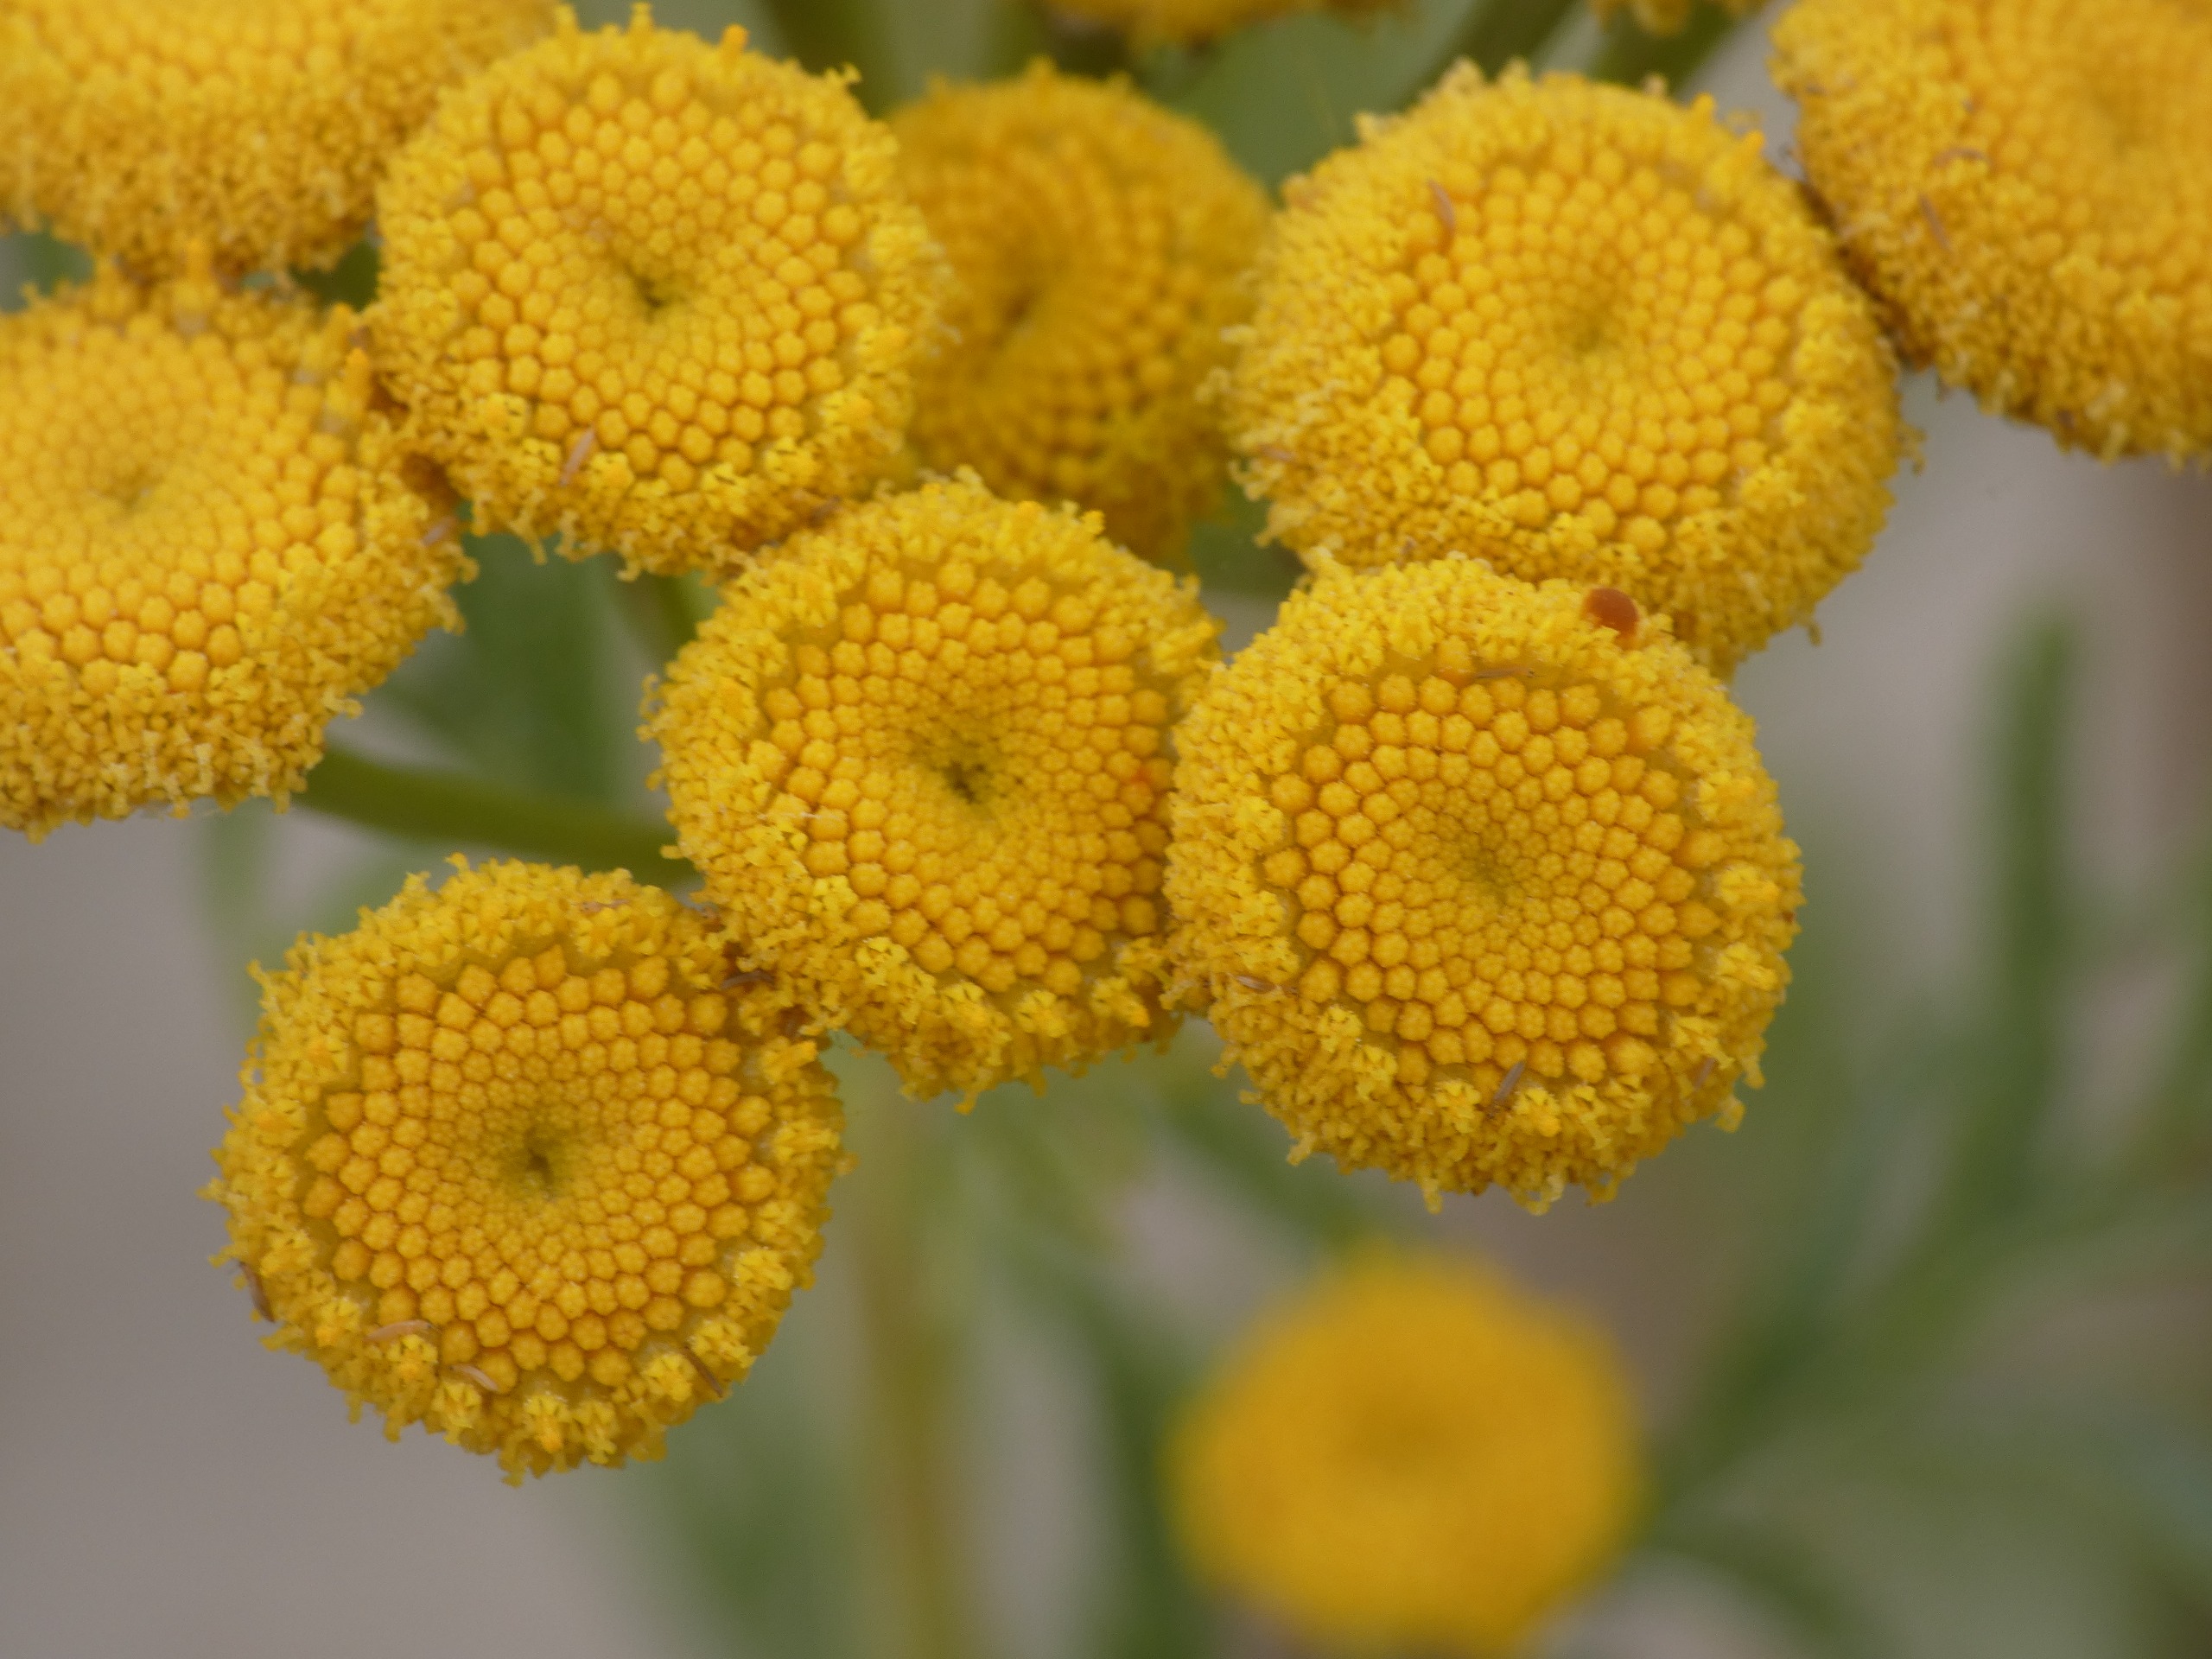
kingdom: Plantae
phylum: Tracheophyta
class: Magnoliopsida
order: Asterales
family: Asteraceae
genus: Tanacetum
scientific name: Tanacetum vulgare
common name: Rejnfan
